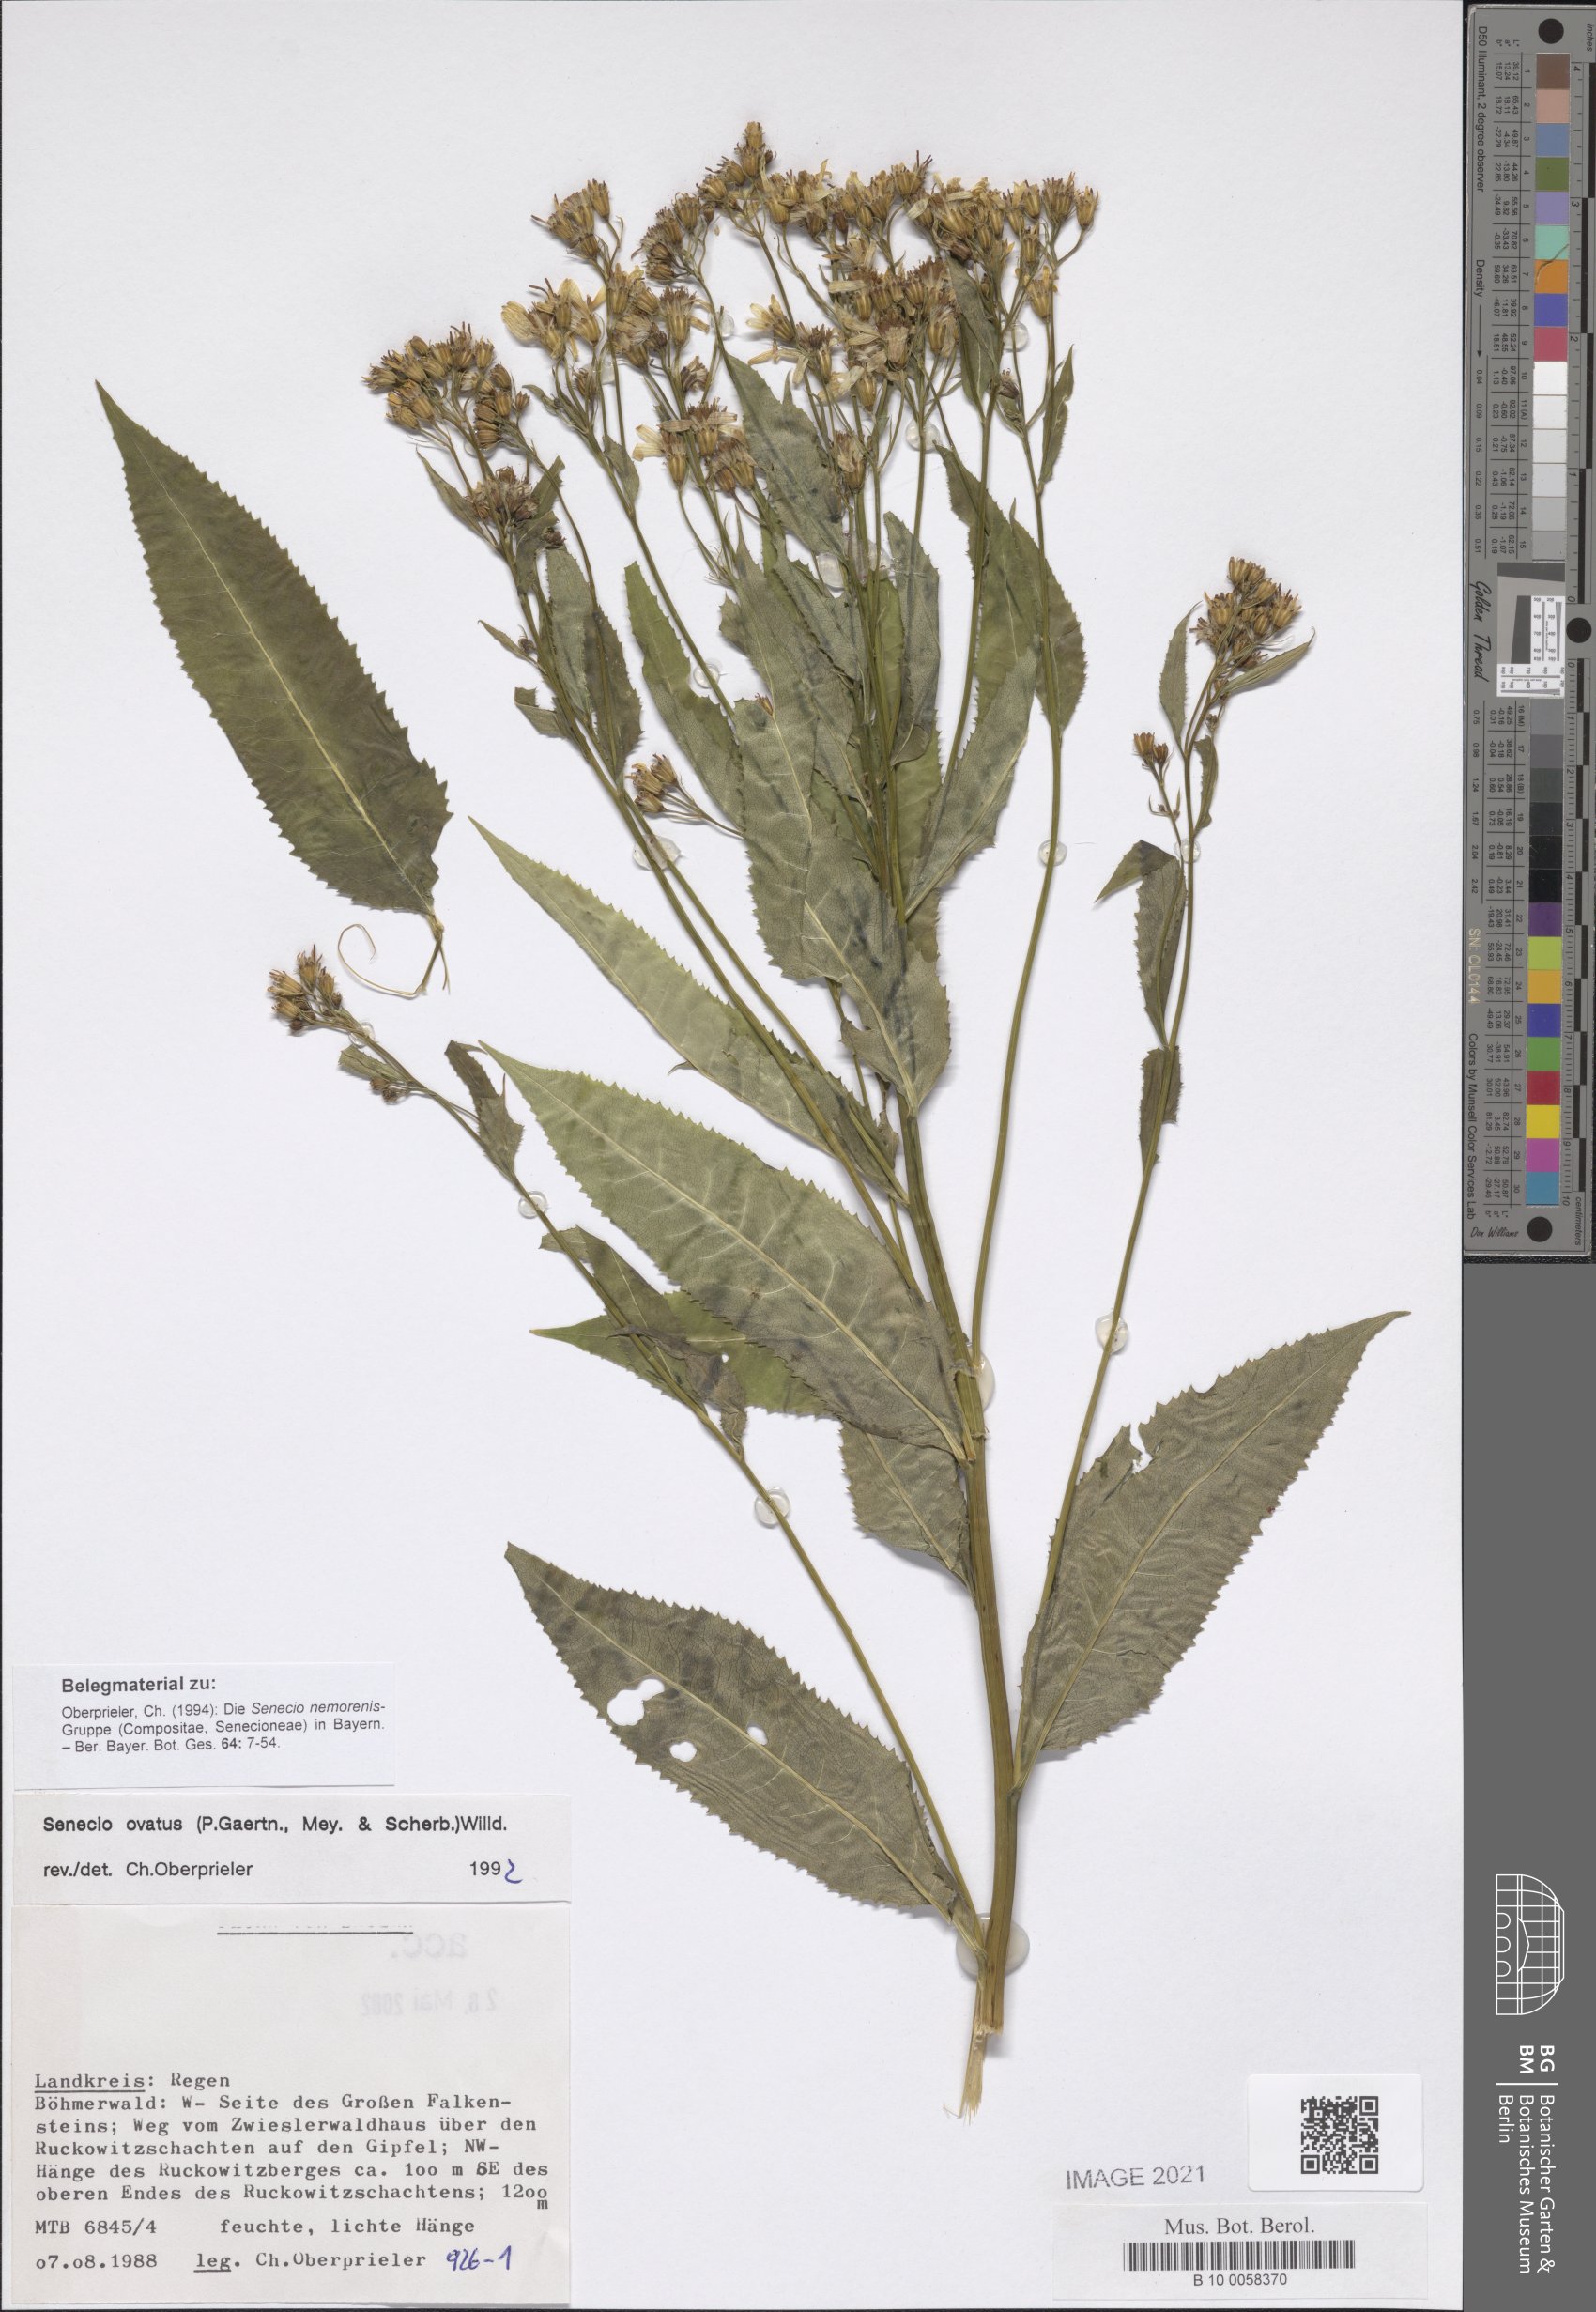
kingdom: Plantae
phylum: Tracheophyta
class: Magnoliopsida
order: Asterales
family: Asteraceae
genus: Senecio
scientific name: Senecio ovatus
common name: Wood ragwort
